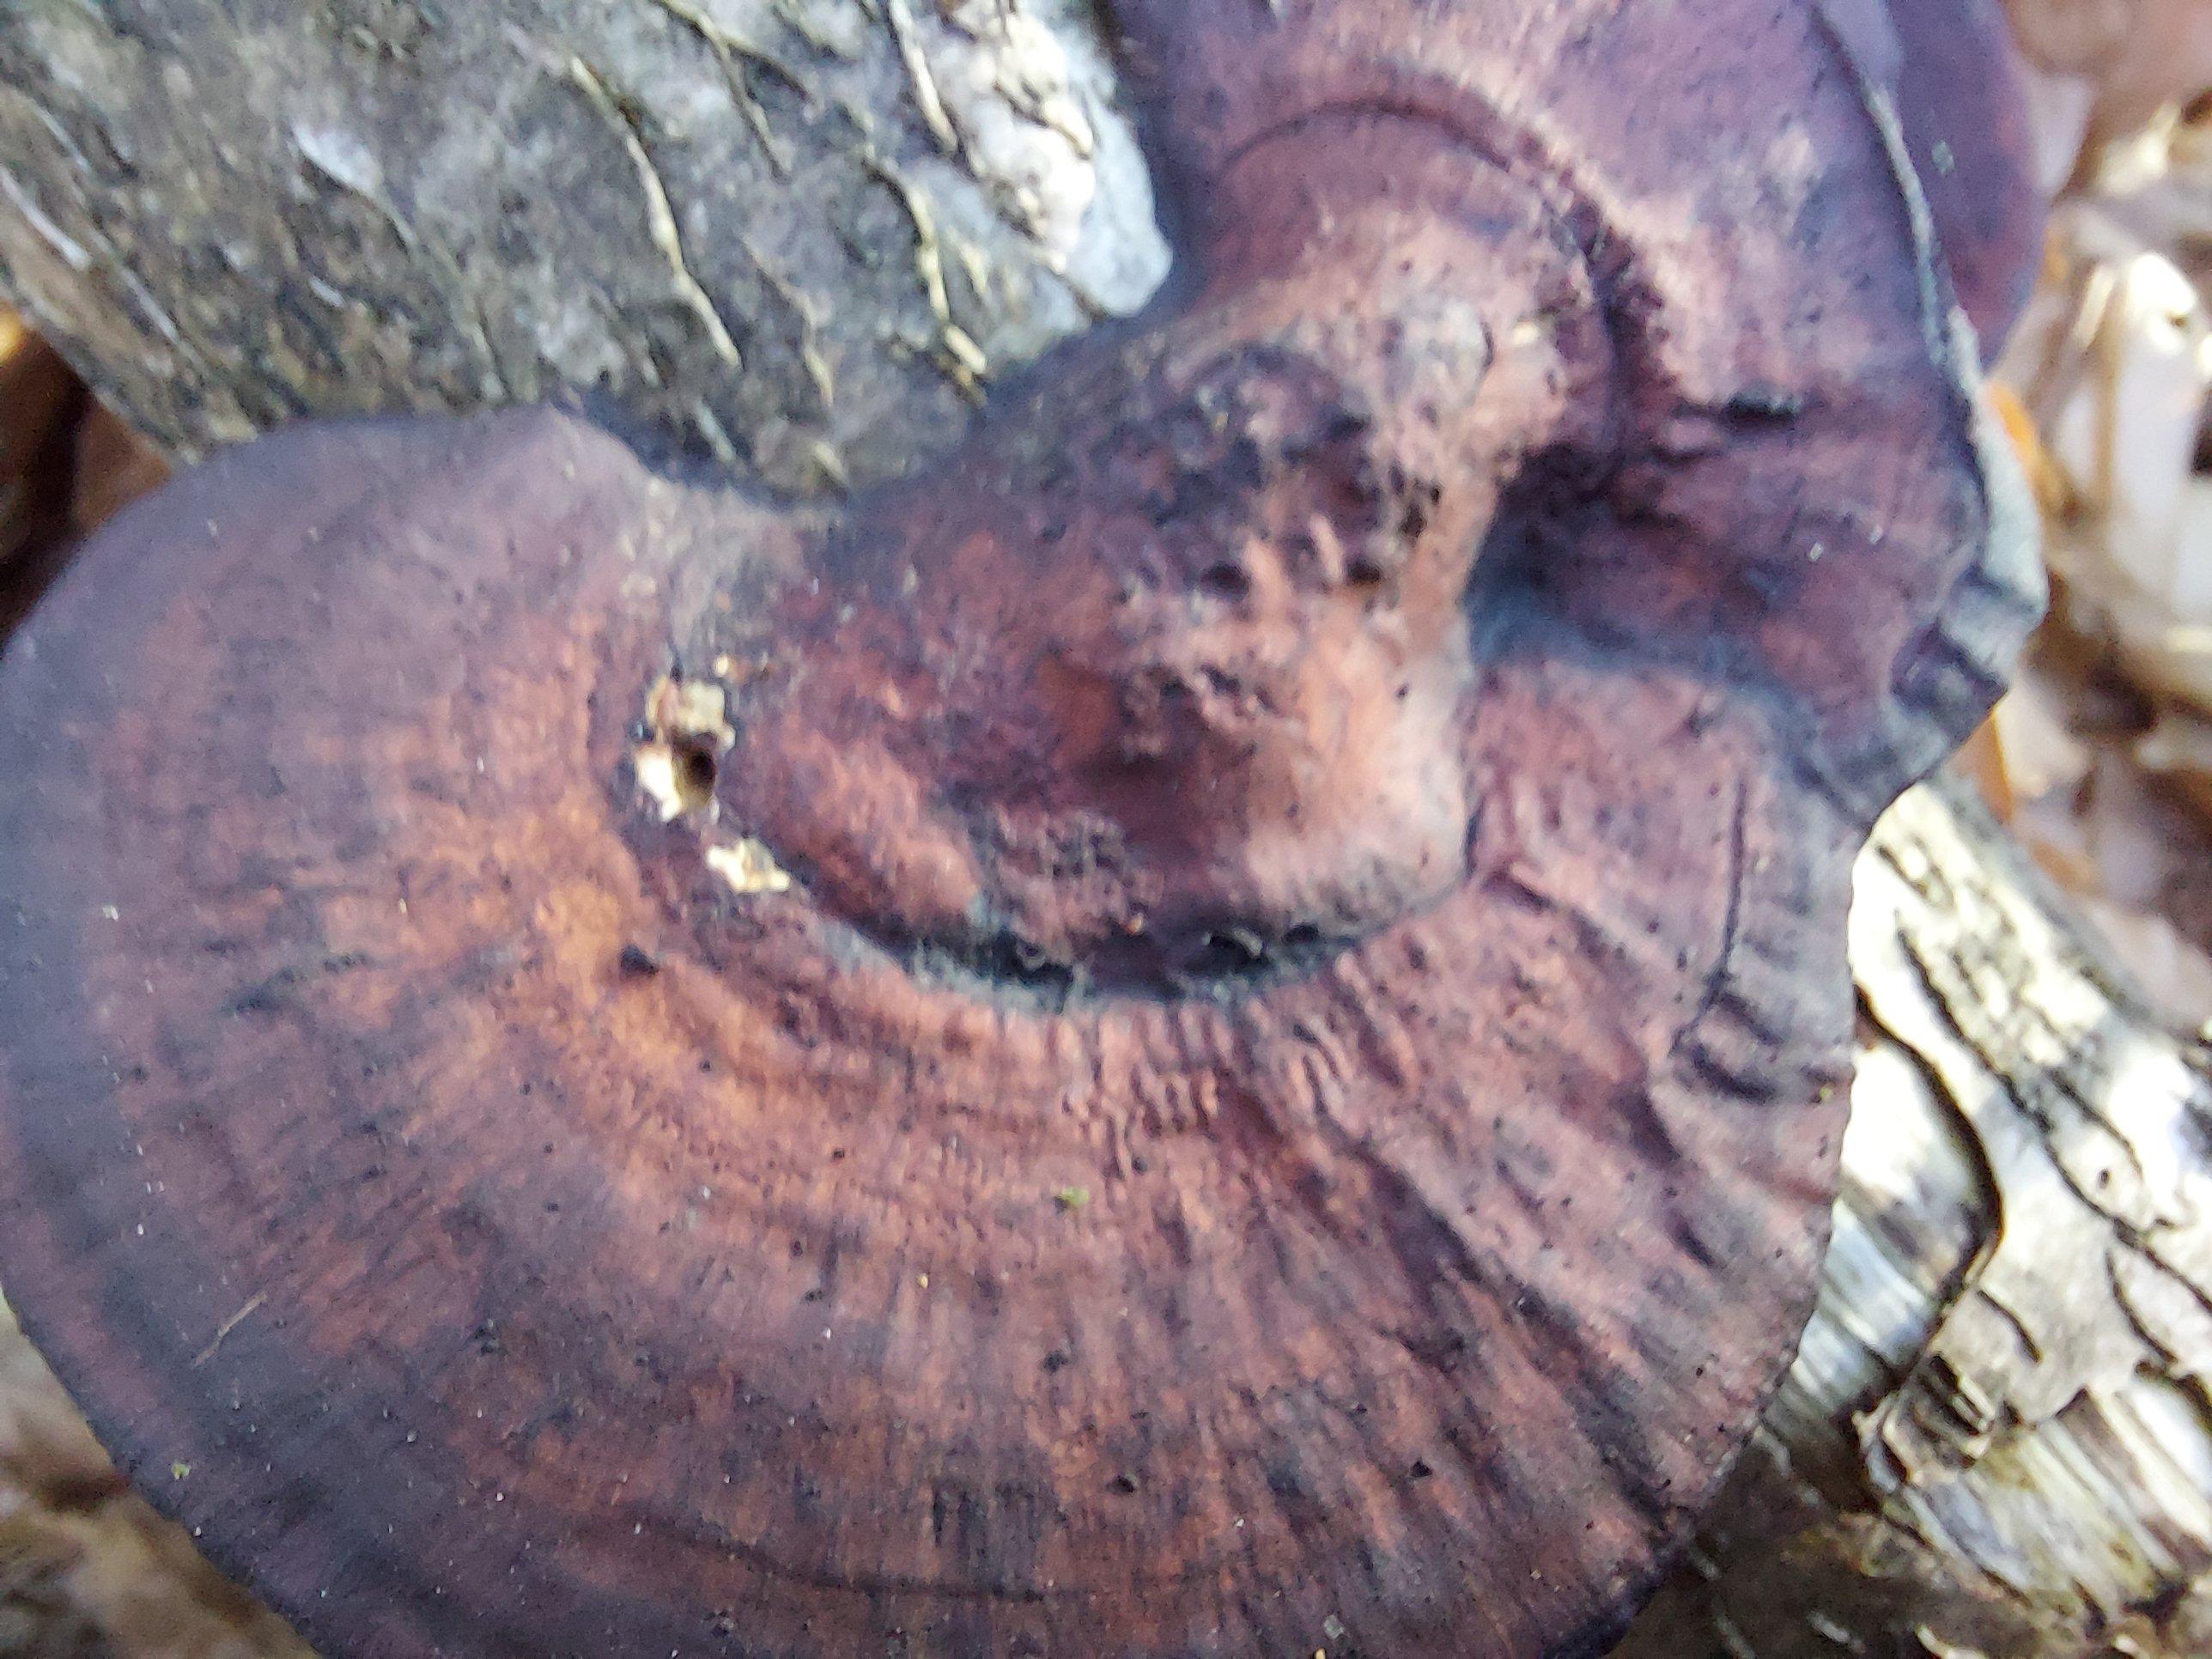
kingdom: Fungi
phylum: Basidiomycota
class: Agaricomycetes
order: Polyporales
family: Polyporaceae
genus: Daedaleopsis
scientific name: Daedaleopsis confragosa
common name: rødmende læderporesvamp
